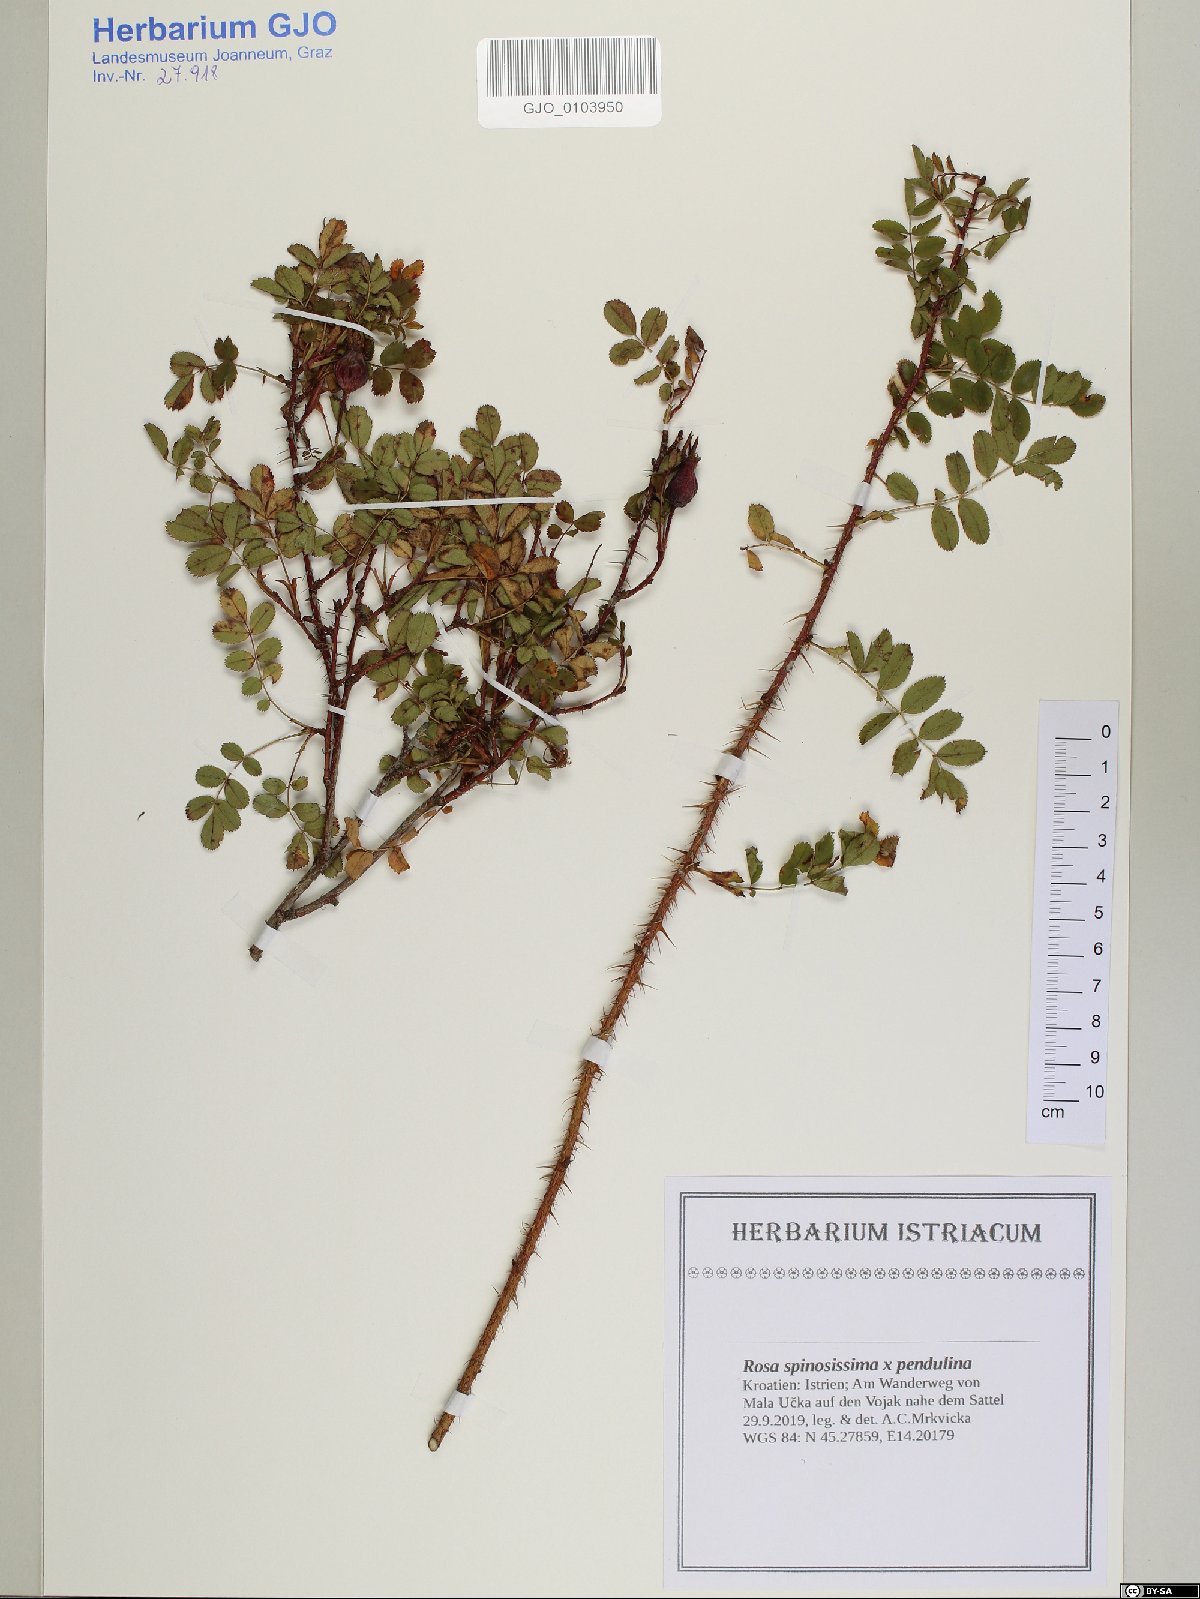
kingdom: Plantae
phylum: Tracheophyta
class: Magnoliopsida
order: Rosales
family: Rosaceae
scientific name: Rosaceae
